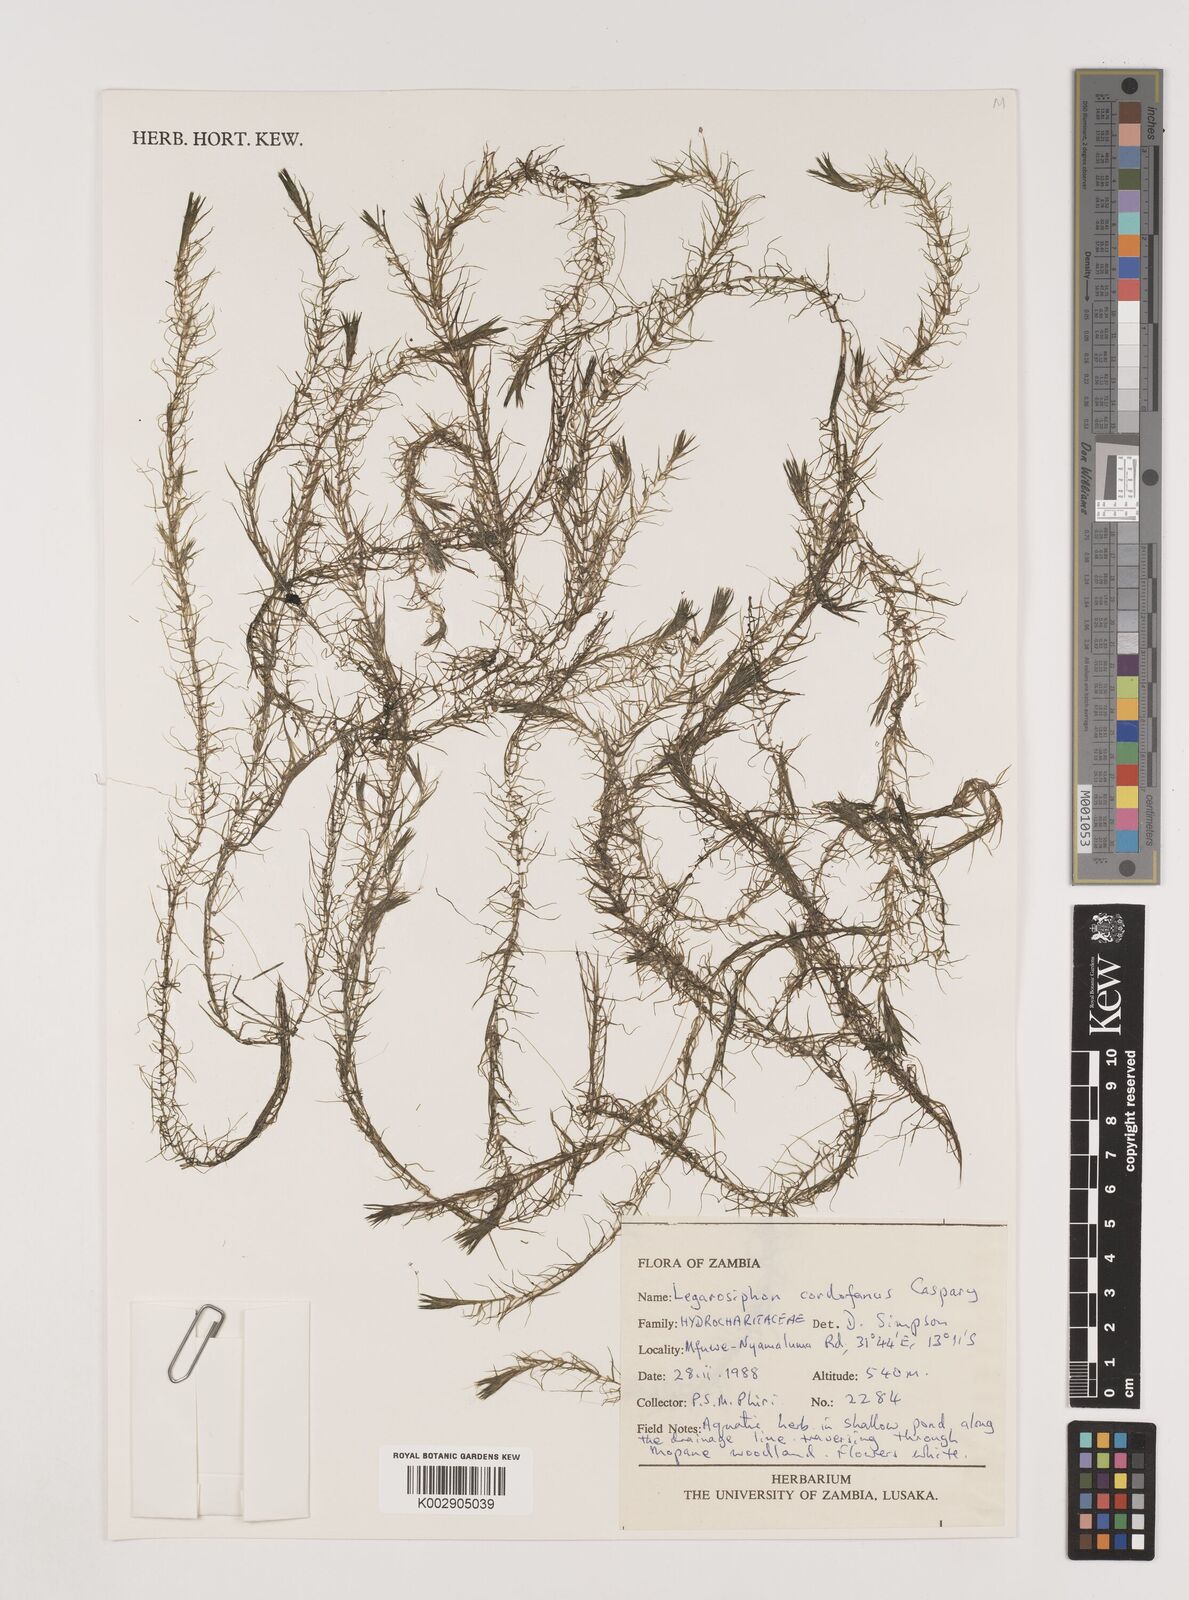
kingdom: Plantae
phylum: Tracheophyta
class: Liliopsida
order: Alismatales
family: Hydrocharitaceae
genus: Lagarosiphon
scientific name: Lagarosiphon cordofanus
